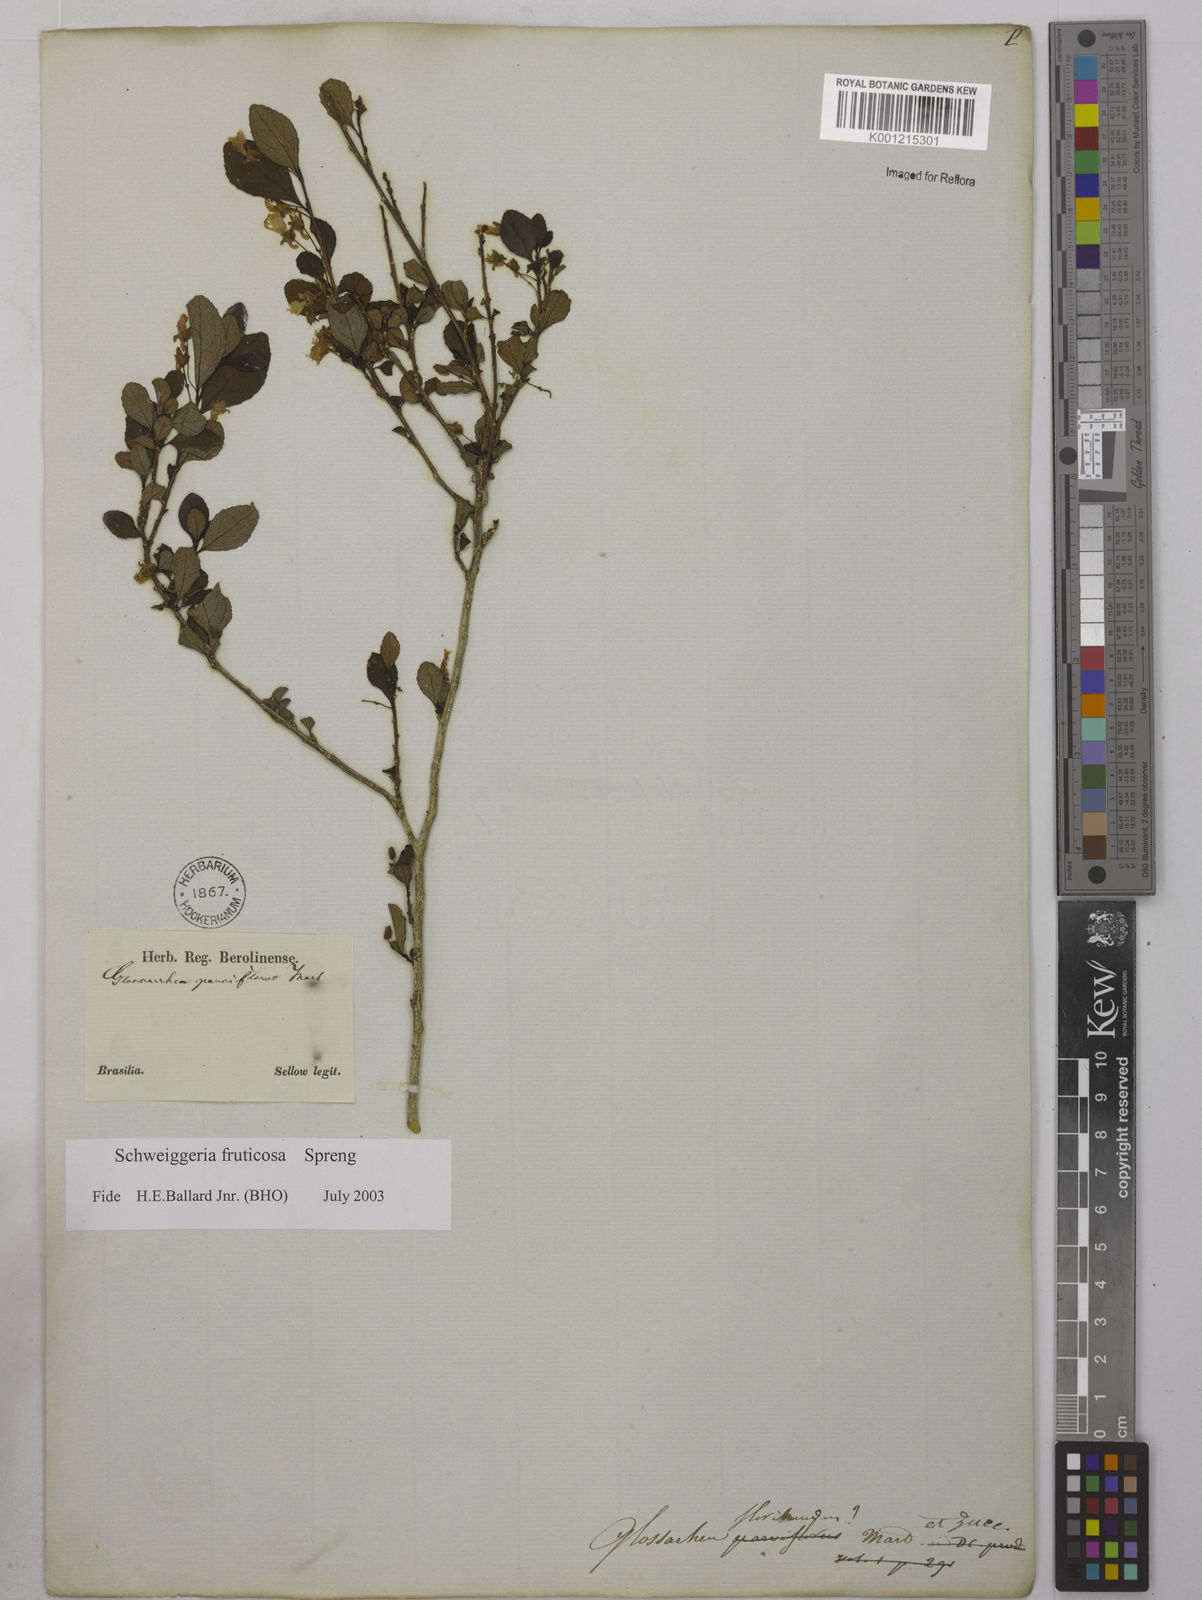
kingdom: Plantae
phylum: Tracheophyta
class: Magnoliopsida
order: Malpighiales
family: Violaceae
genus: Schweiggeria
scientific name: Schweiggeria fruticosa
